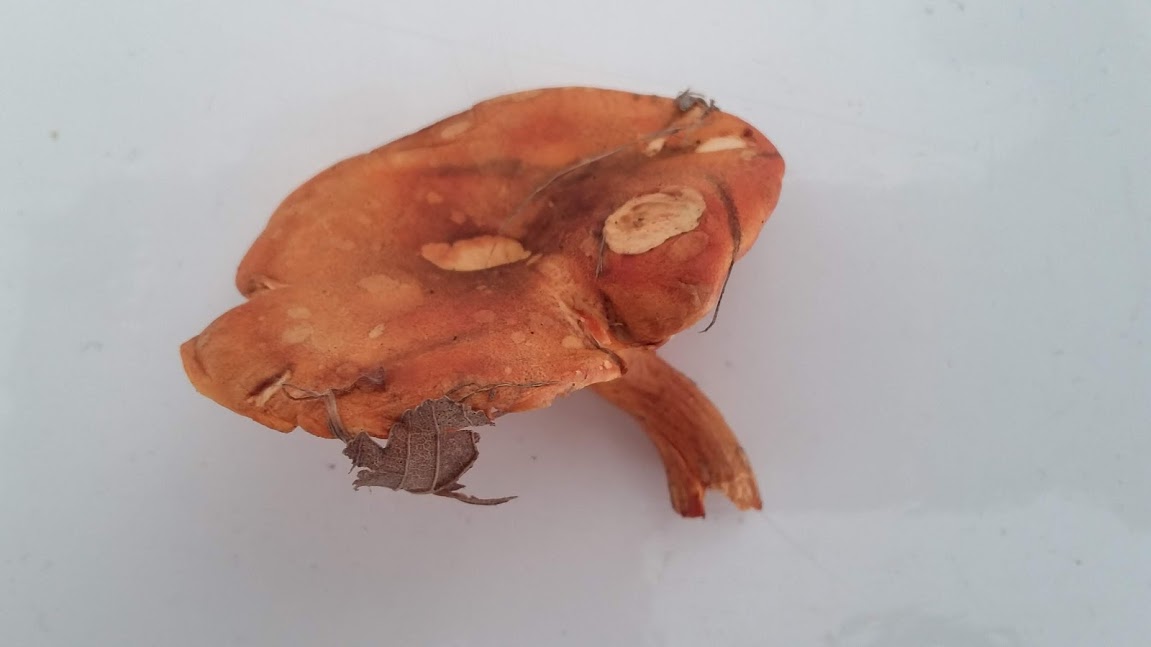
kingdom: Fungi
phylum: Basidiomycota
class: Agaricomycetes
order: Boletales
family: Hygrophoropsidaceae
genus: Hygrophoropsis
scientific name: Hygrophoropsis aurantiaca
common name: almindelig orangekantarel
